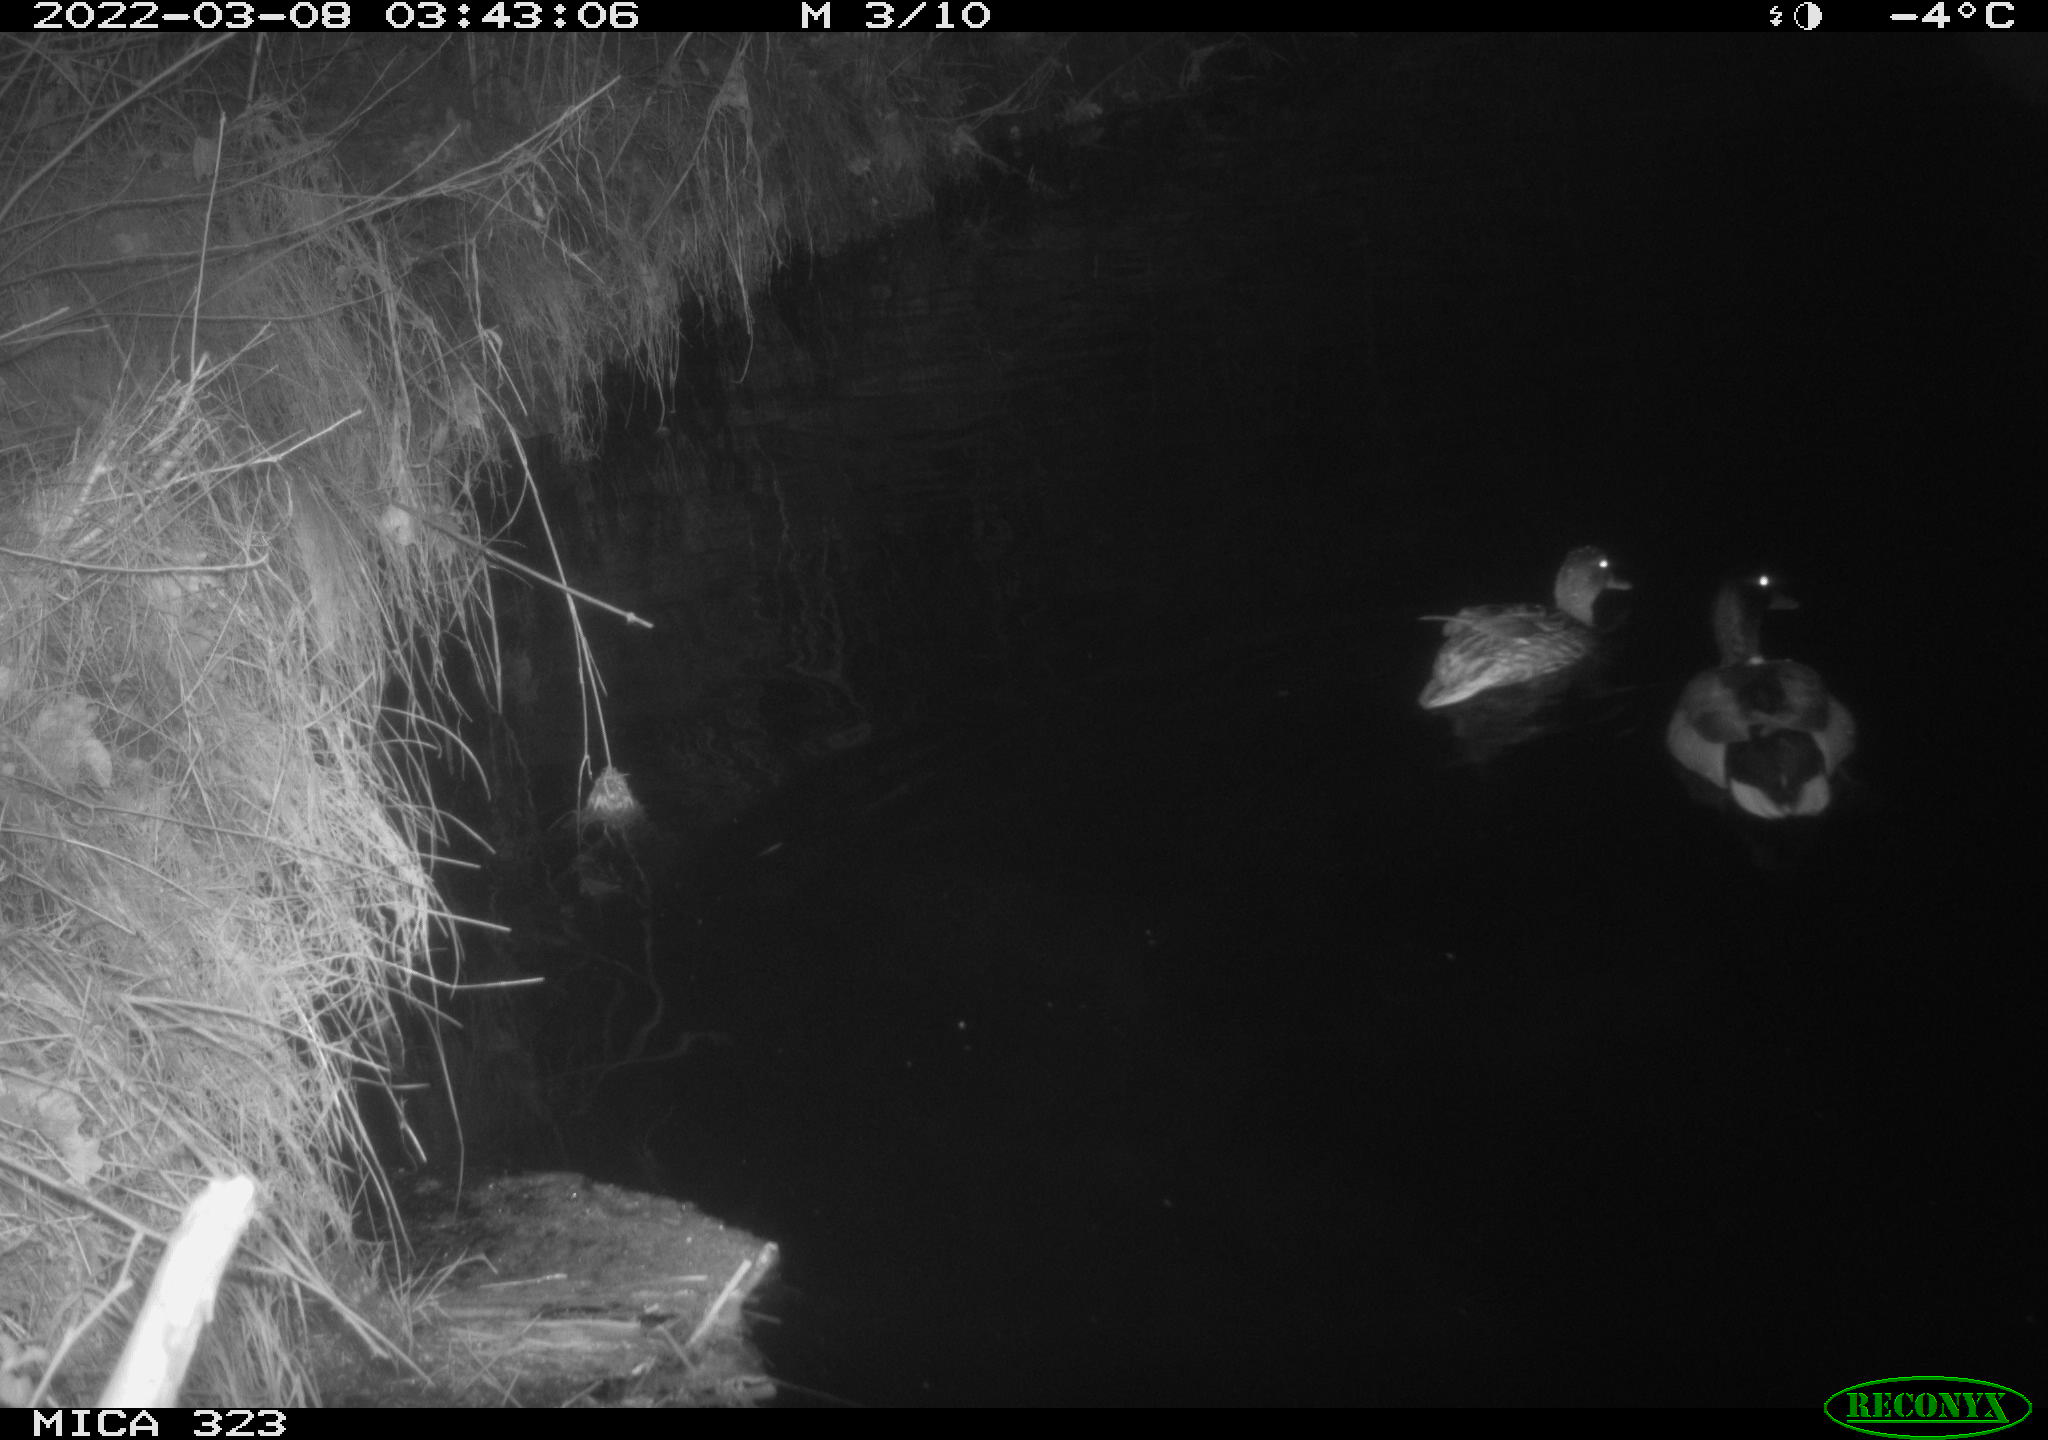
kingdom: Animalia
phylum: Chordata
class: Aves
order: Anseriformes
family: Anatidae
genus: Anas
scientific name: Anas platyrhynchos
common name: Mallard
